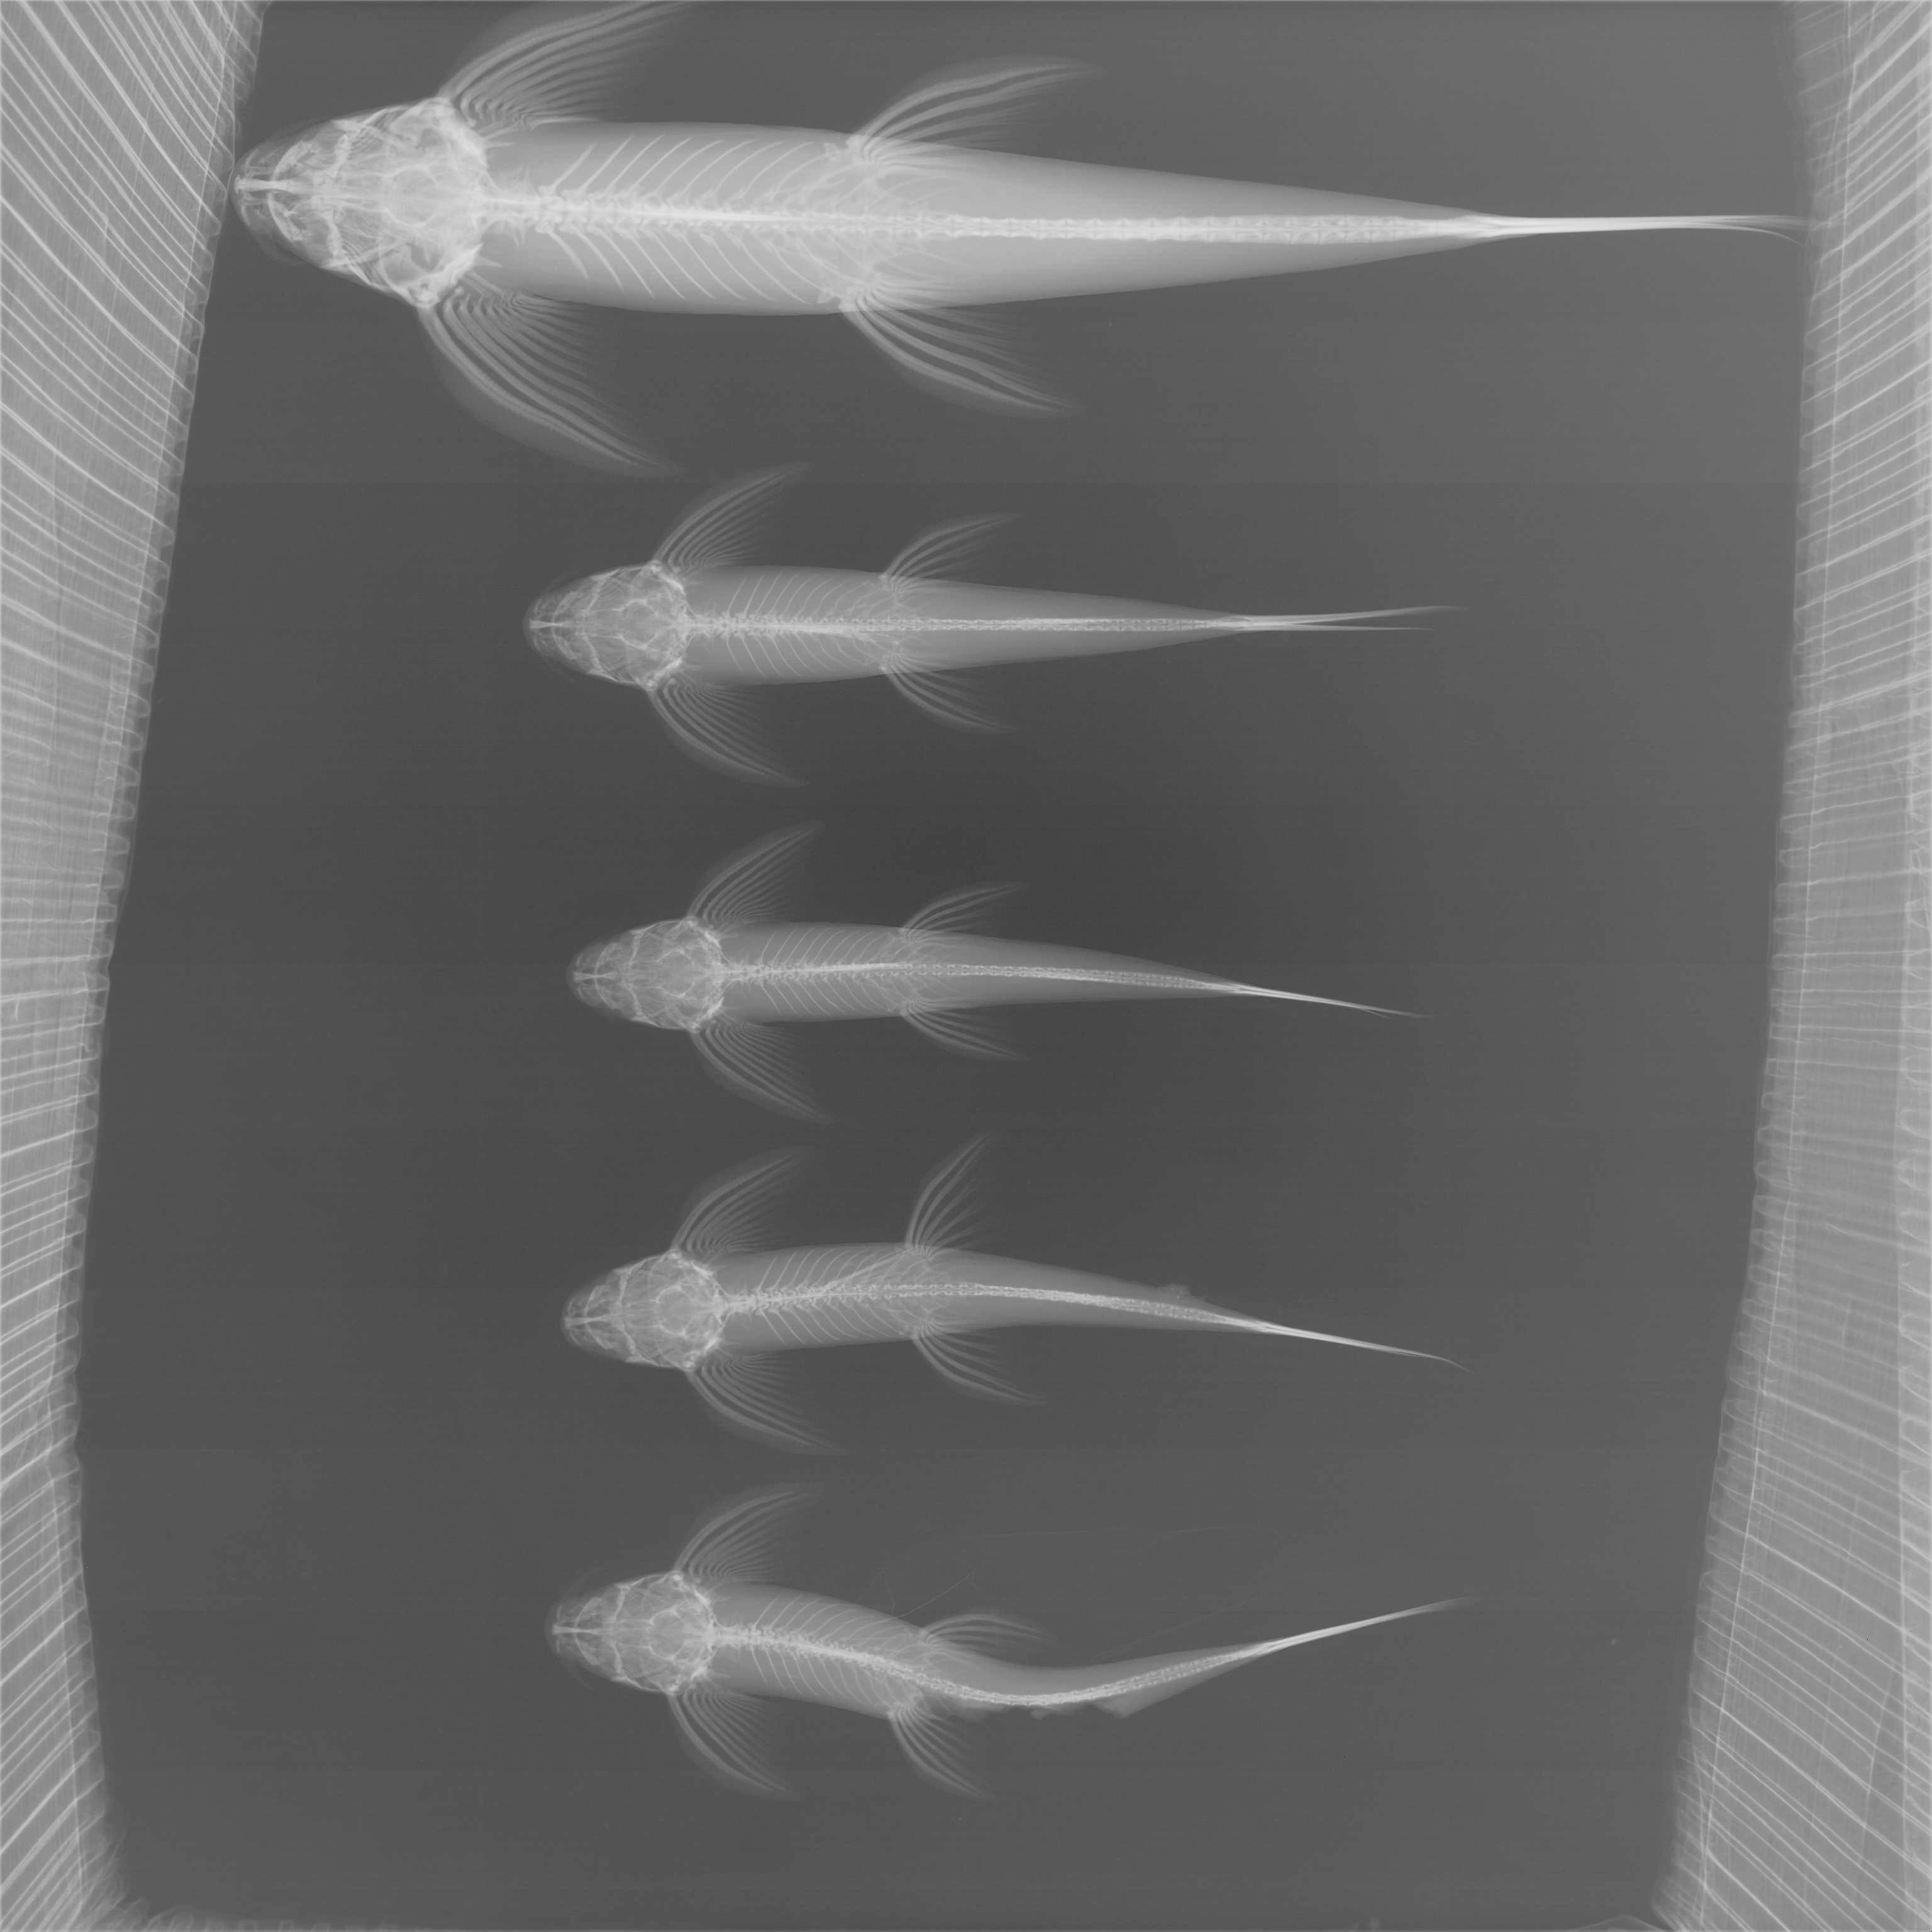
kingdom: Animalia
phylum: Chordata
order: Siluriformes
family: Amphiliidae
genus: Congoglanis
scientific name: Congoglanis alula
